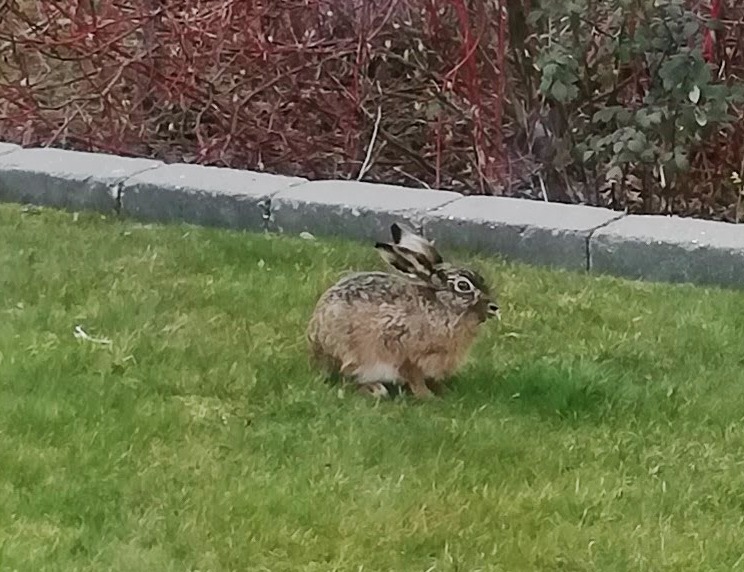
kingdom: Animalia
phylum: Chordata
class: Mammalia
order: Lagomorpha
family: Leporidae
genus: Lepus
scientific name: Lepus europaeus
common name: Hare
